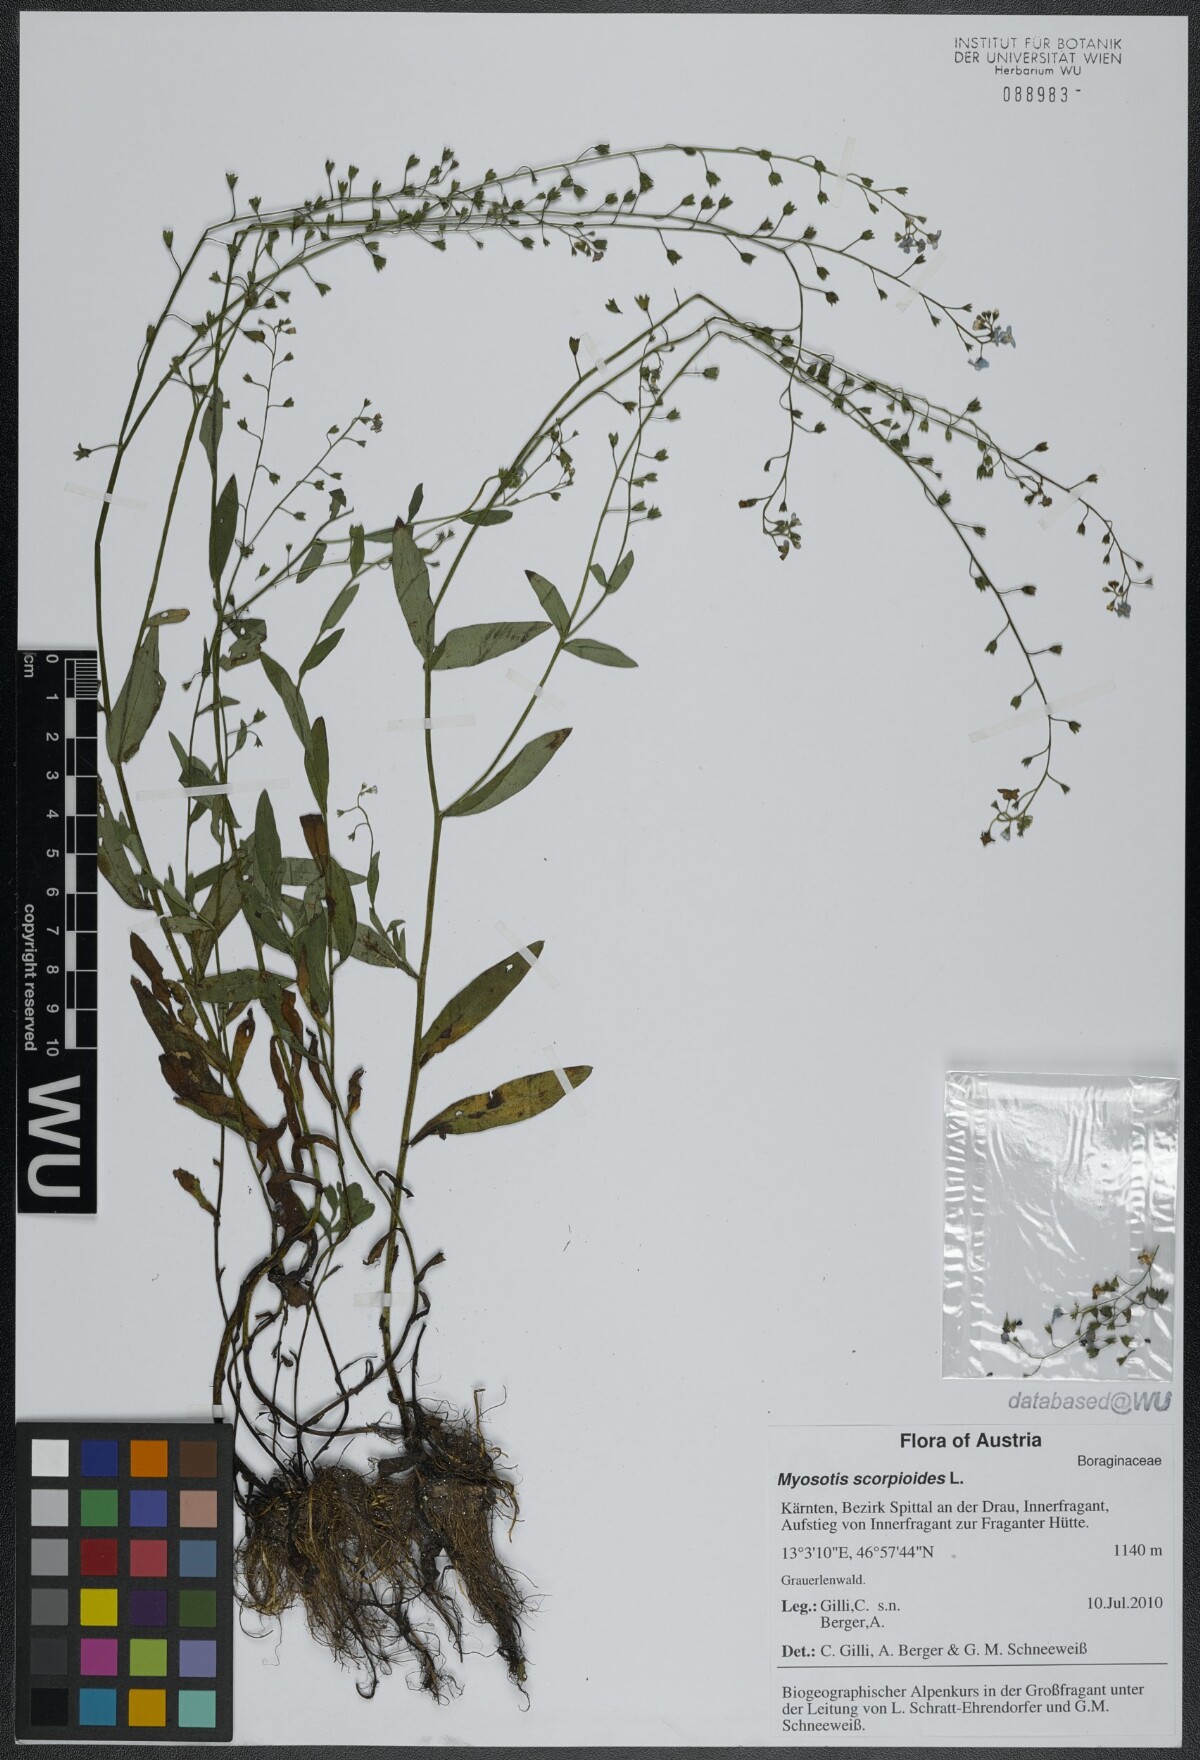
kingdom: Plantae
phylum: Tracheophyta
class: Magnoliopsida
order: Boraginales
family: Boraginaceae
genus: Myosotis
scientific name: Myosotis scorpioides
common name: Water forget-me-not
